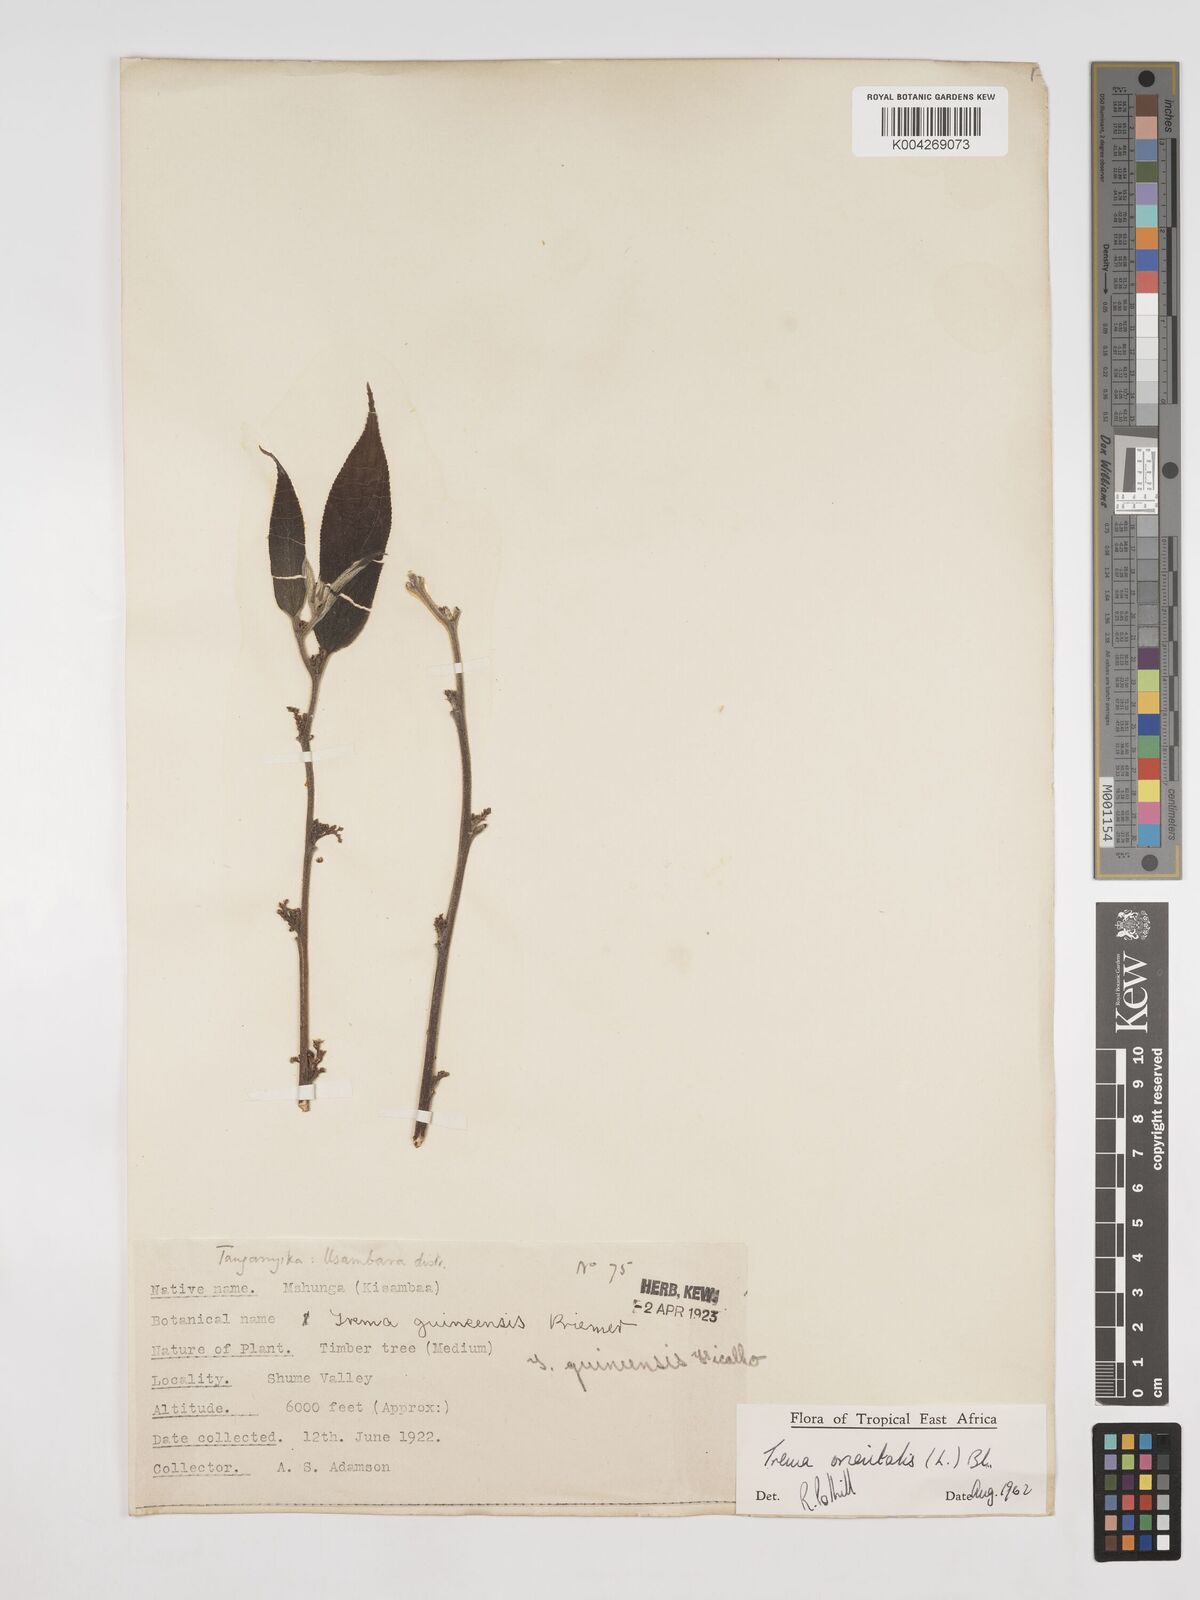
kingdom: Plantae
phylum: Tracheophyta
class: Magnoliopsida
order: Rosales
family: Cannabaceae
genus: Trema
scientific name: Trema orientale
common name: Indian charcoal tree
